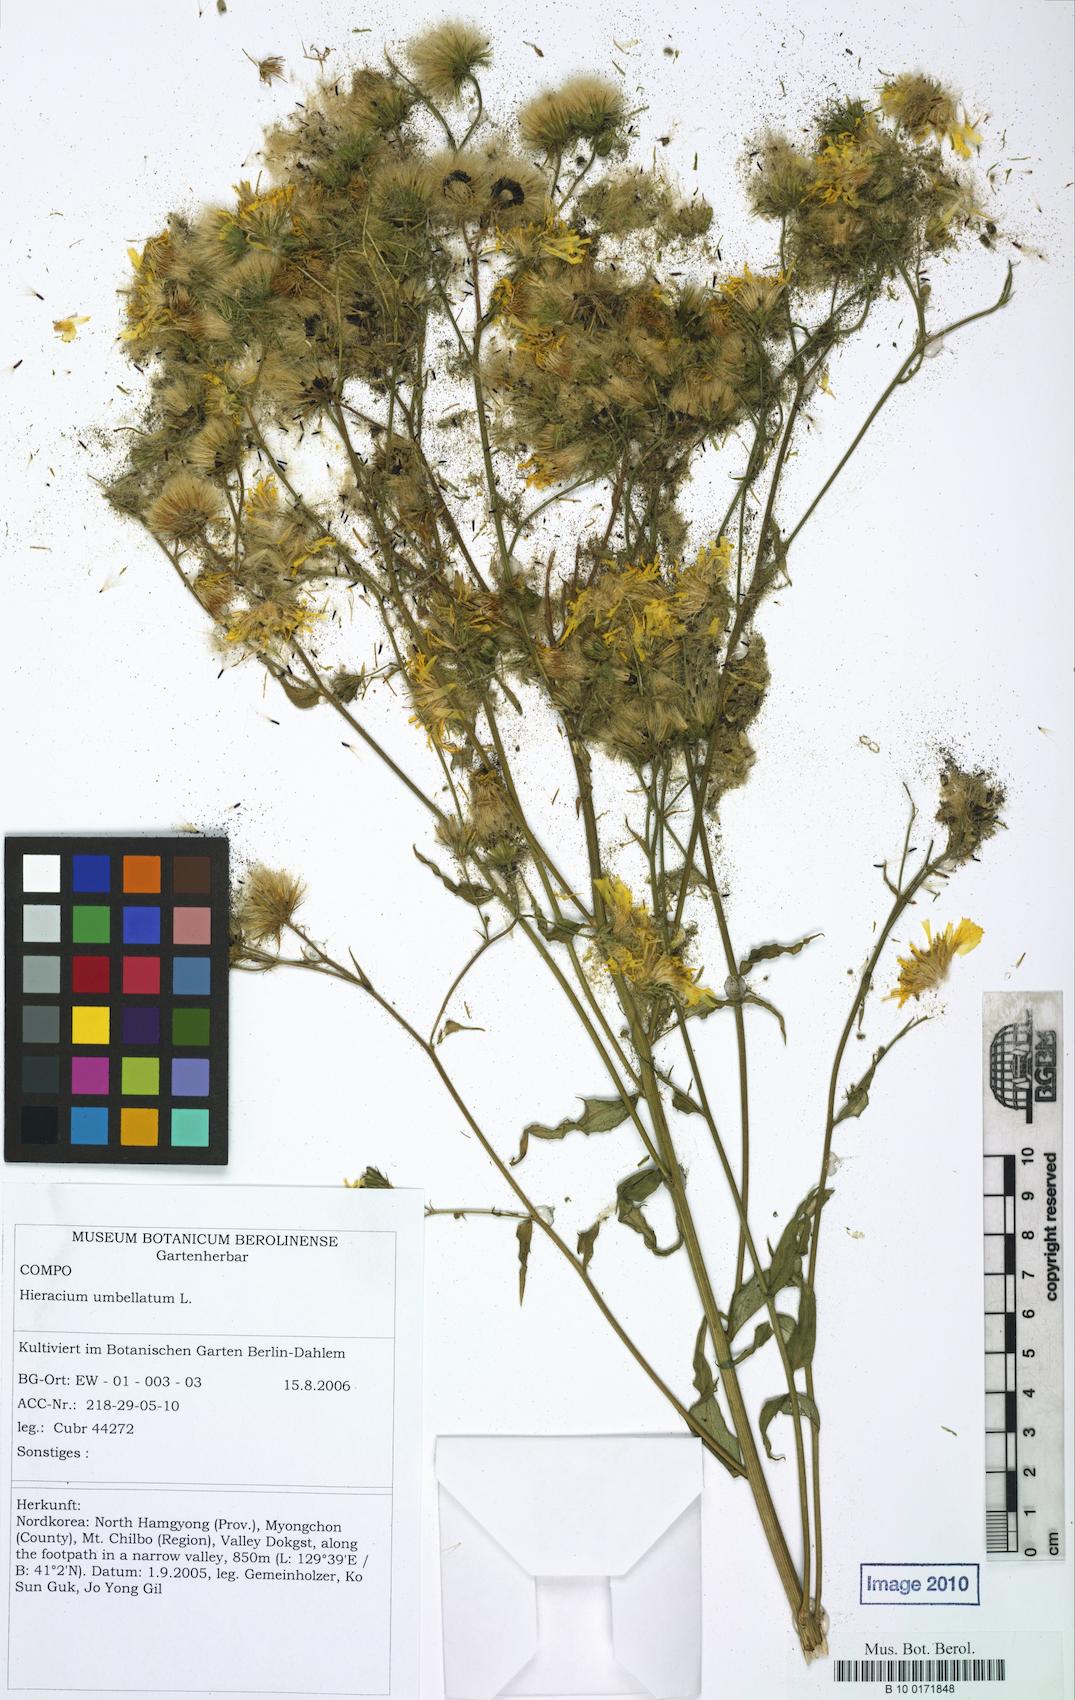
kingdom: Plantae
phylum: Tracheophyta
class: Magnoliopsida
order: Asterales
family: Asteraceae
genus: Hieracium
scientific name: Hieracium umbellatum
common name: Northern hawkweed
